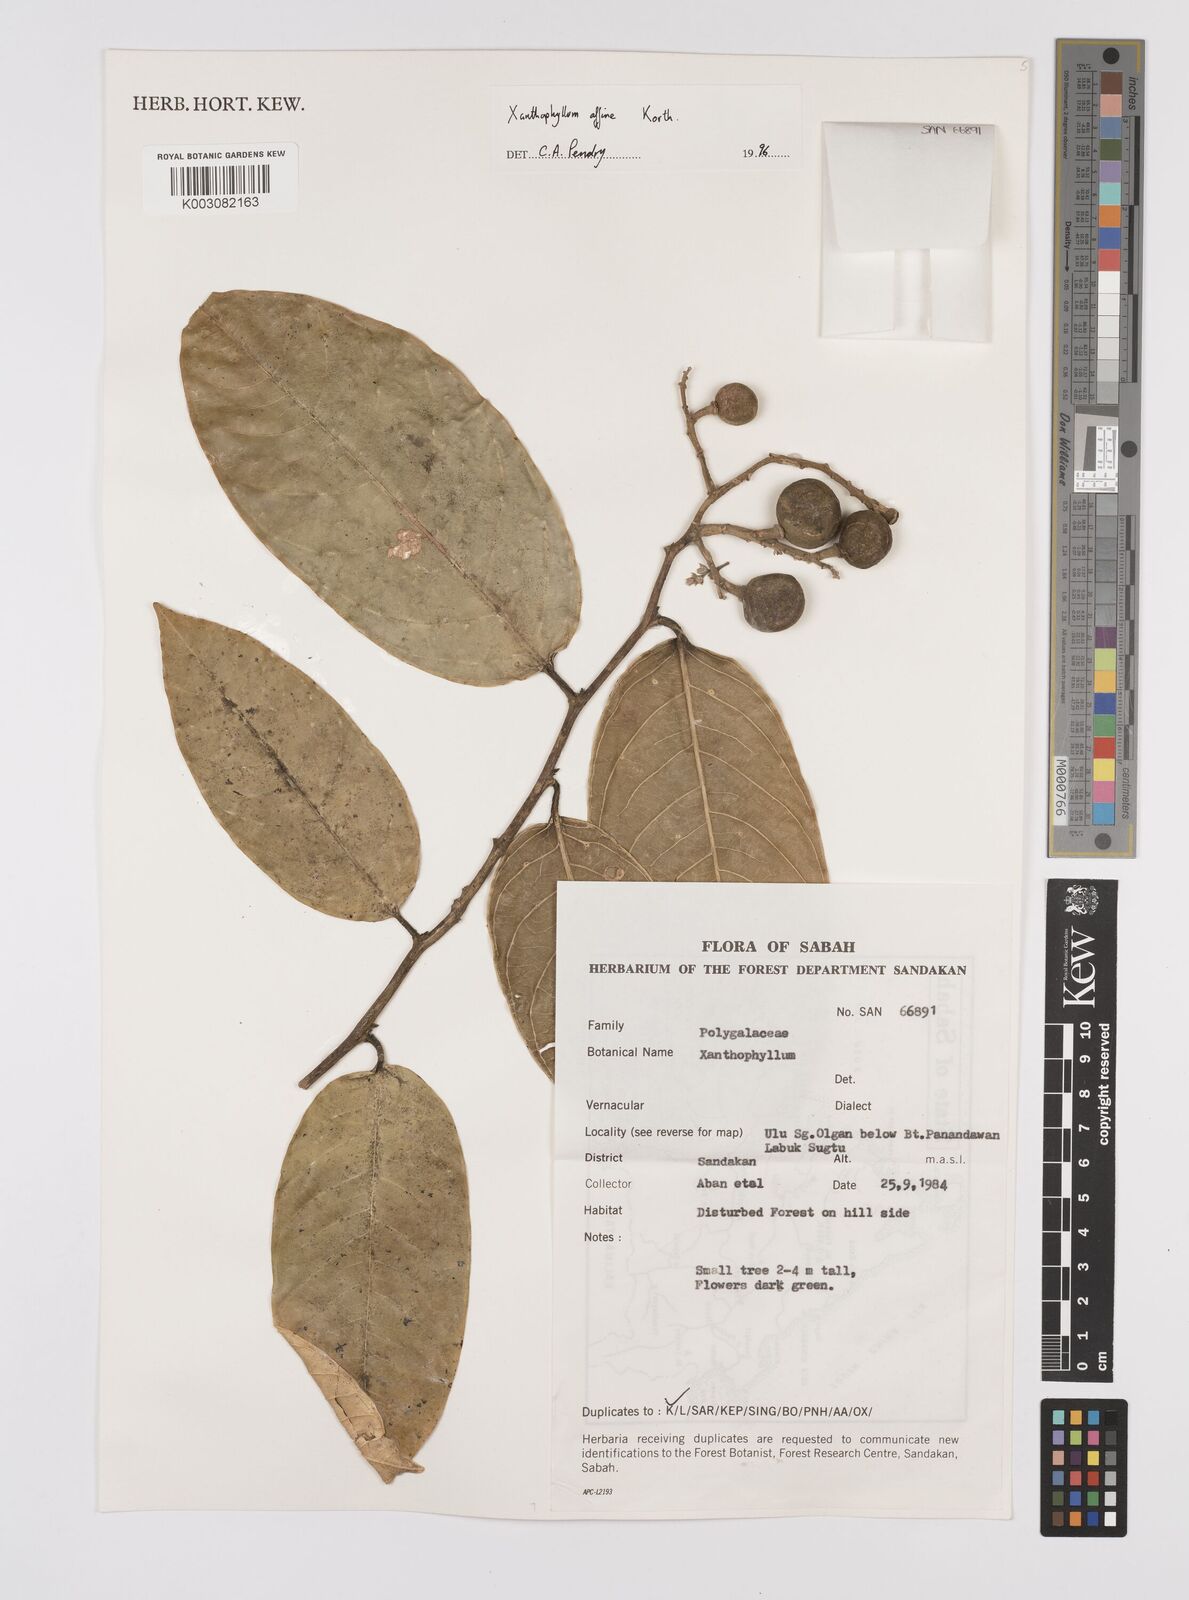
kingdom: Plantae
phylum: Tracheophyta
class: Magnoliopsida
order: Fabales
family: Polygalaceae
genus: Xanthophyllum
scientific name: Xanthophyllum flavescens
